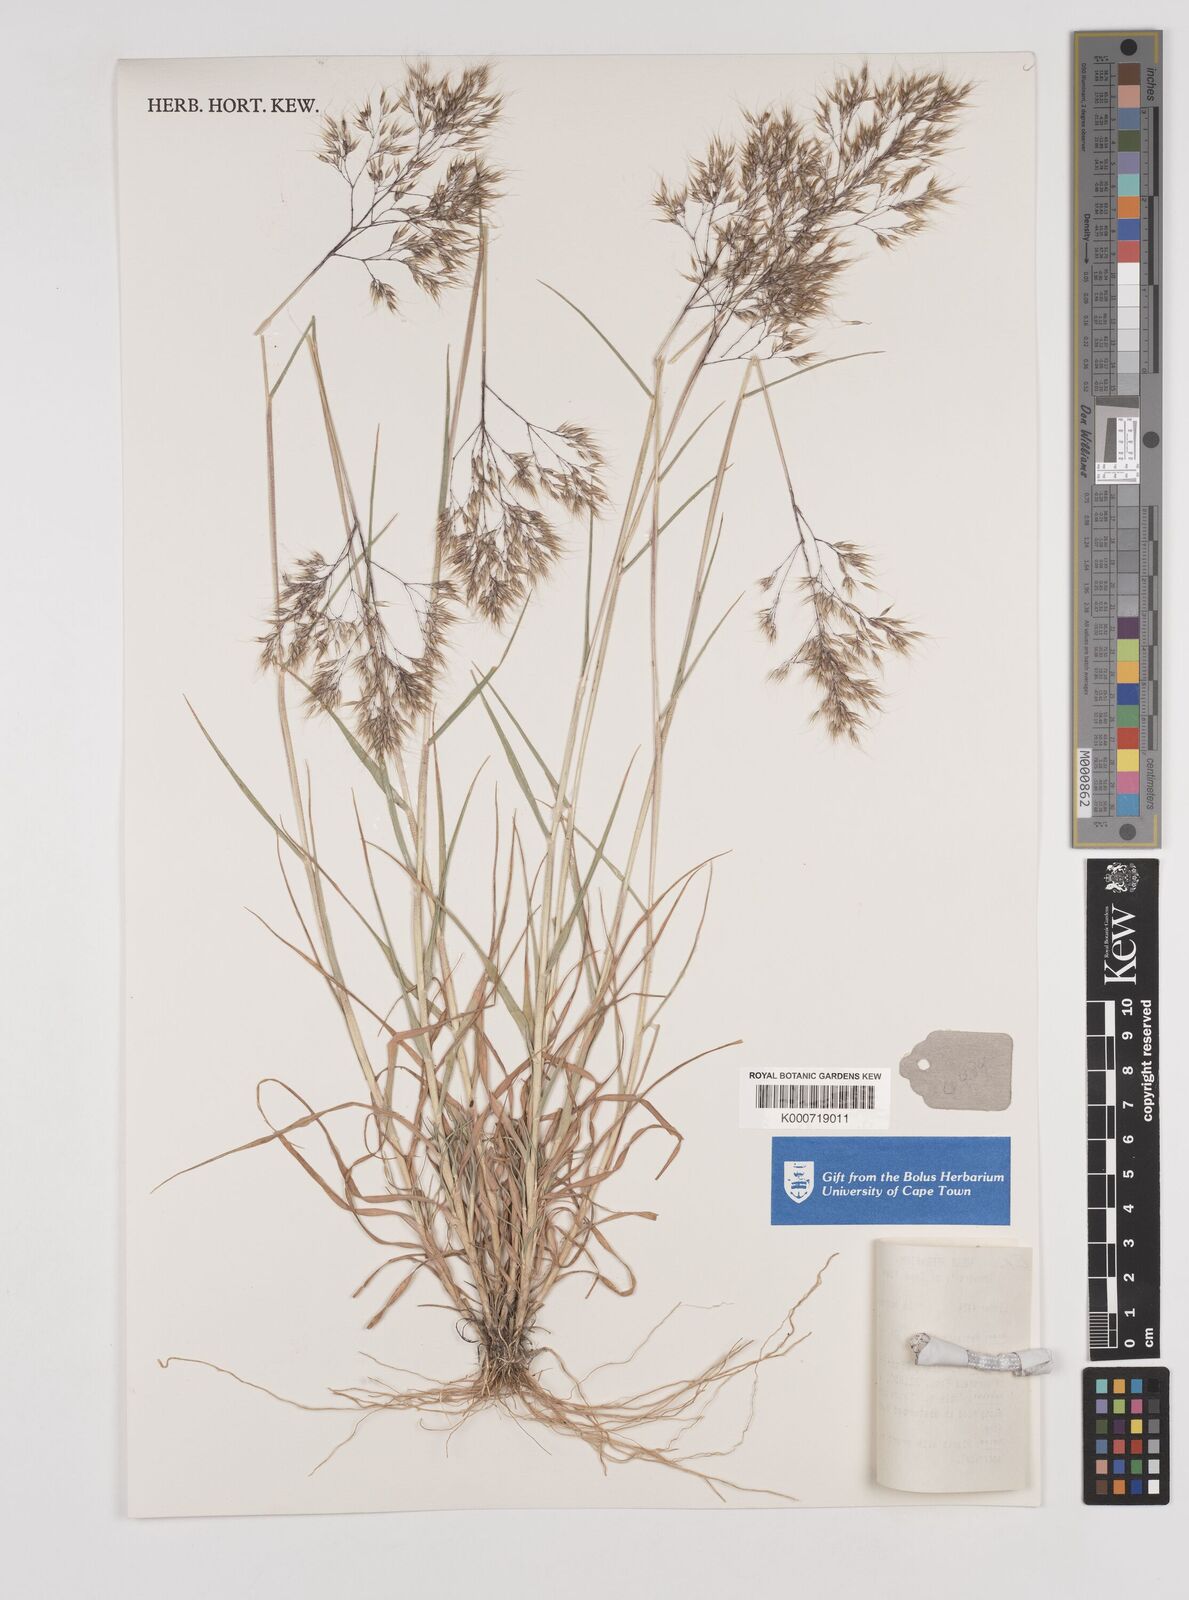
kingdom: Plantae
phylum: Tracheophyta
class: Liliopsida
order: Poales
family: Poaceae
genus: Pentameris
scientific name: Pentameris pallida
